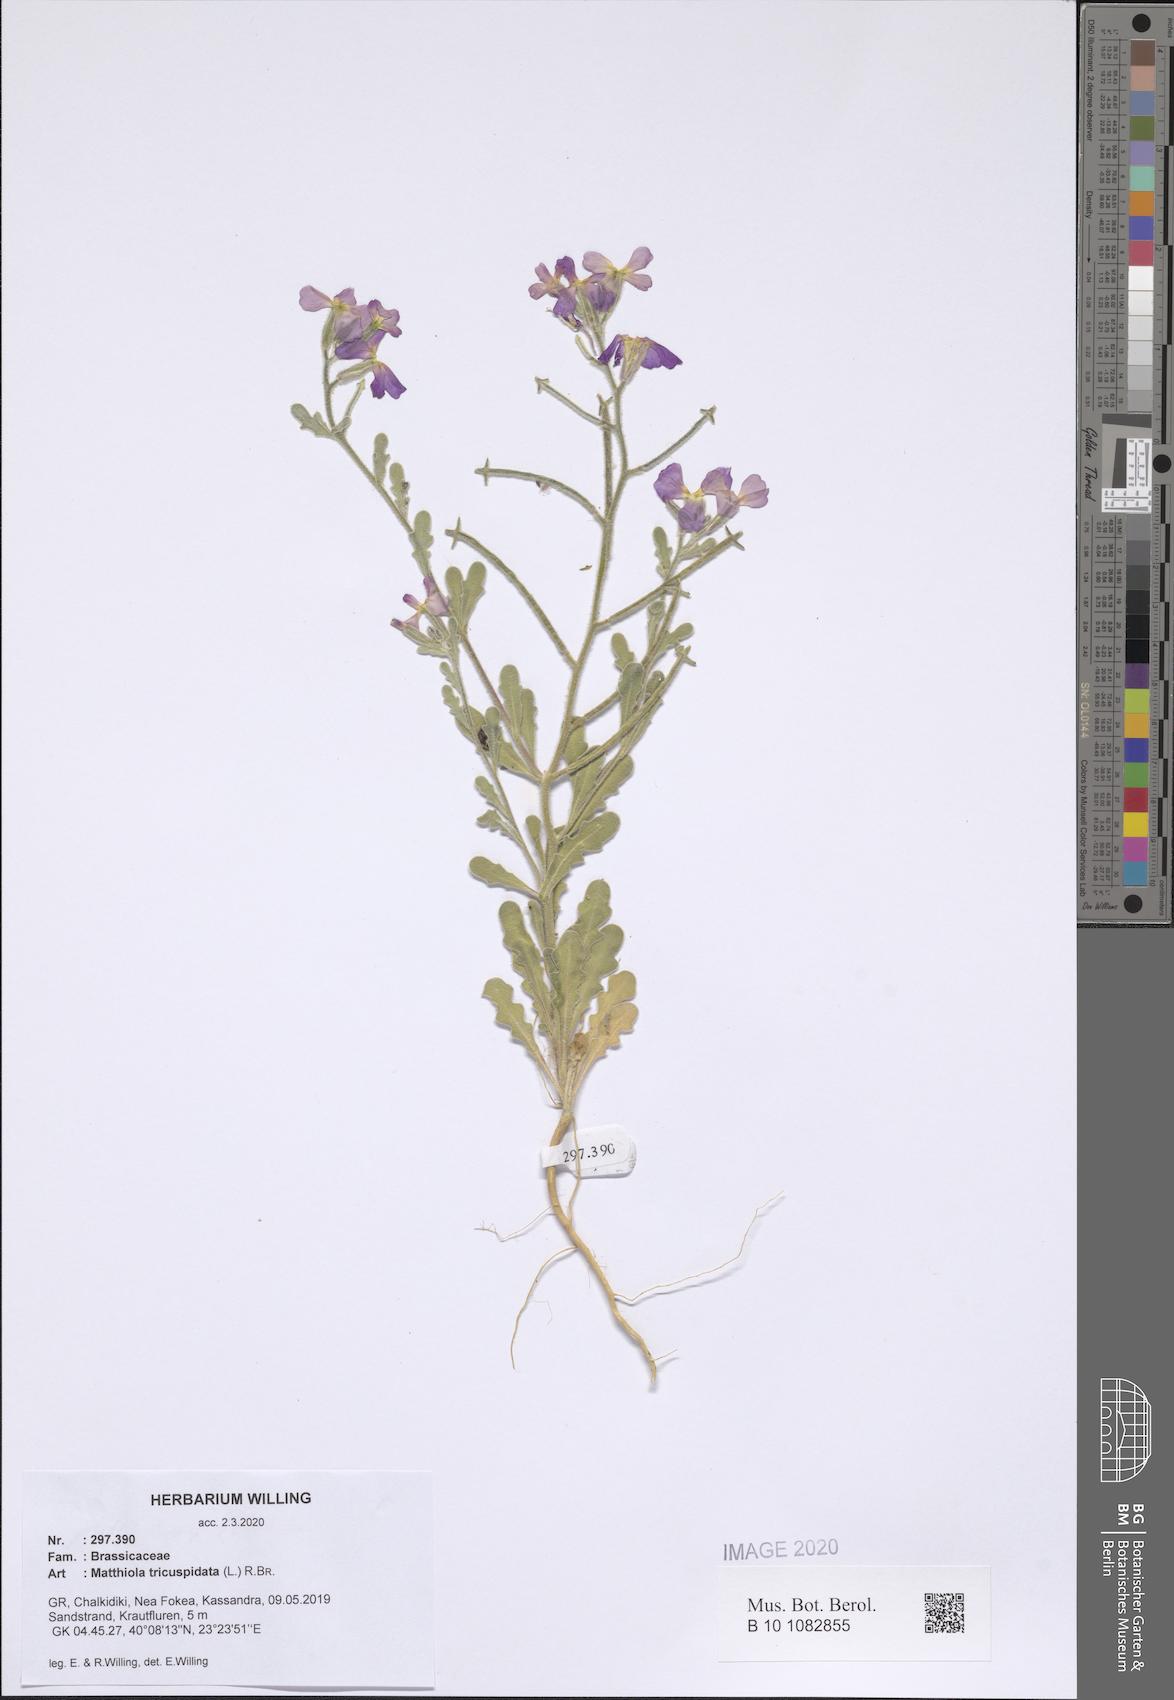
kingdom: Plantae
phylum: Tracheophyta
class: Magnoliopsida
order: Brassicales
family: Brassicaceae
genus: Matthiola
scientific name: Matthiola tricuspidata
